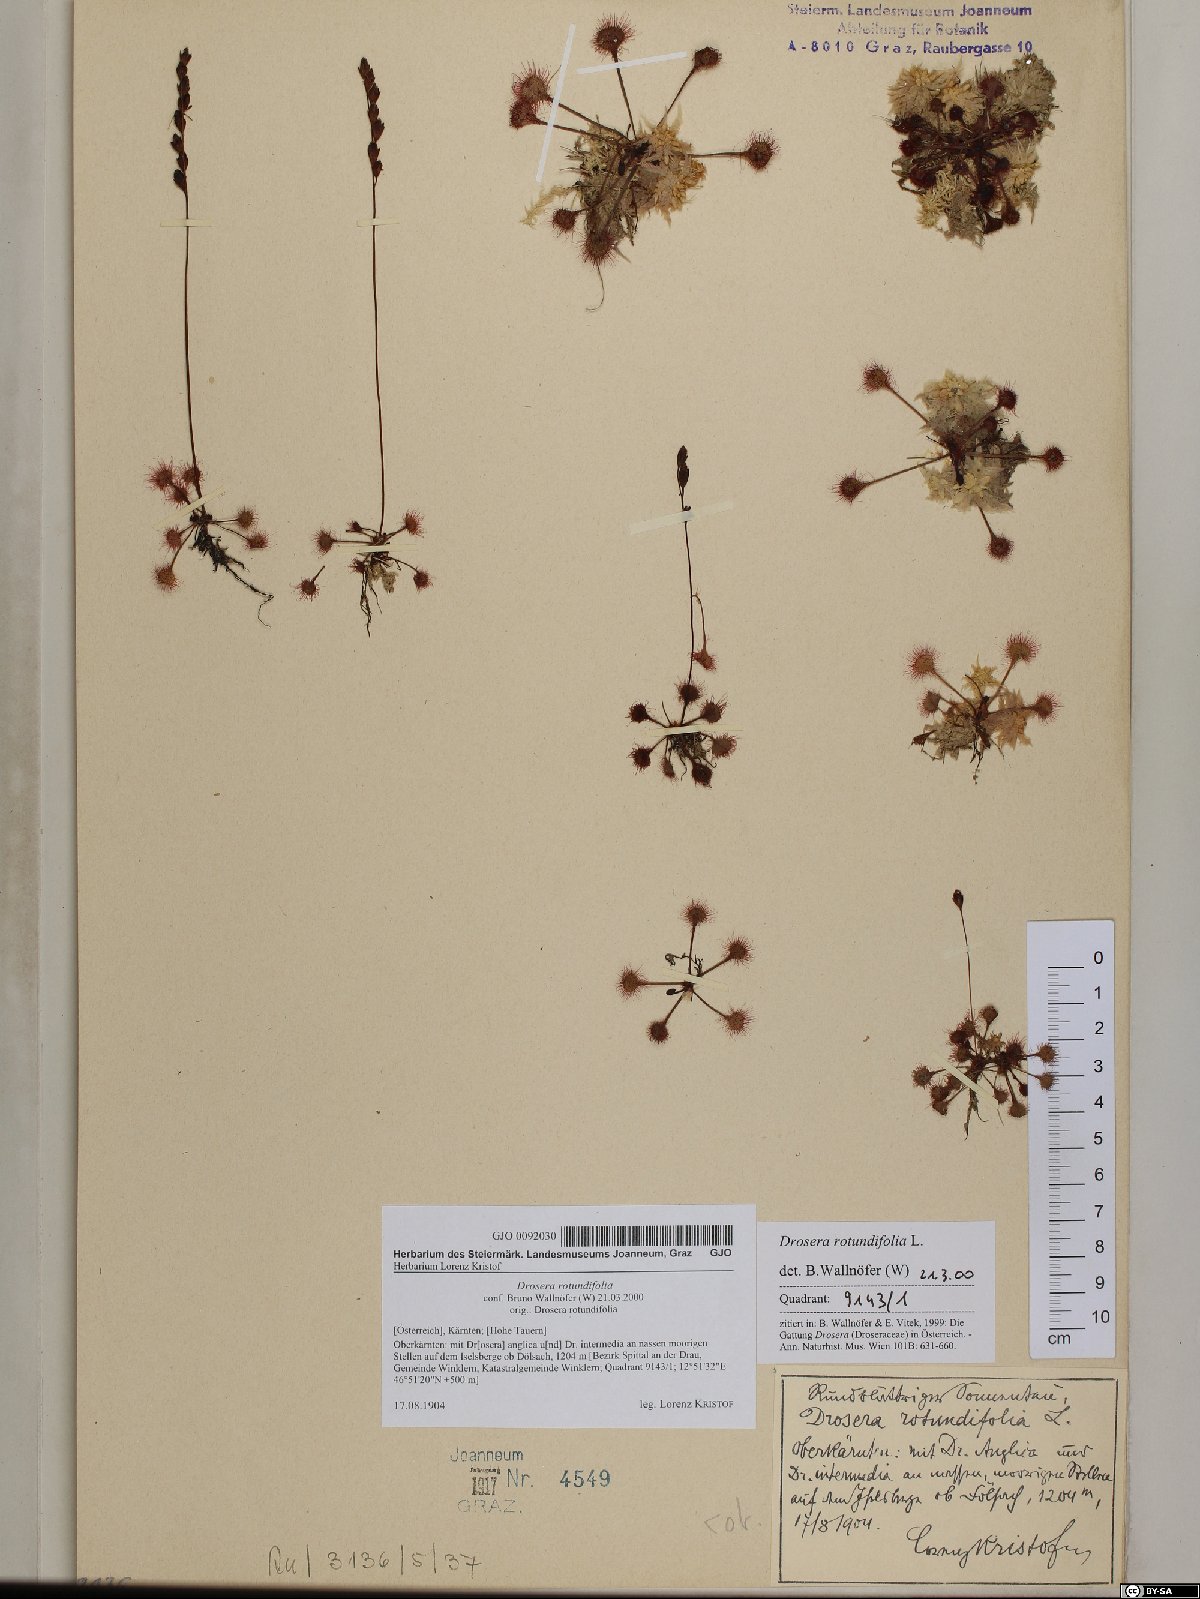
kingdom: Plantae
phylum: Tracheophyta
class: Magnoliopsida
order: Caryophyllales
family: Droseraceae
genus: Drosera
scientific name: Drosera rotundifolia
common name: Round-leaved sundew
